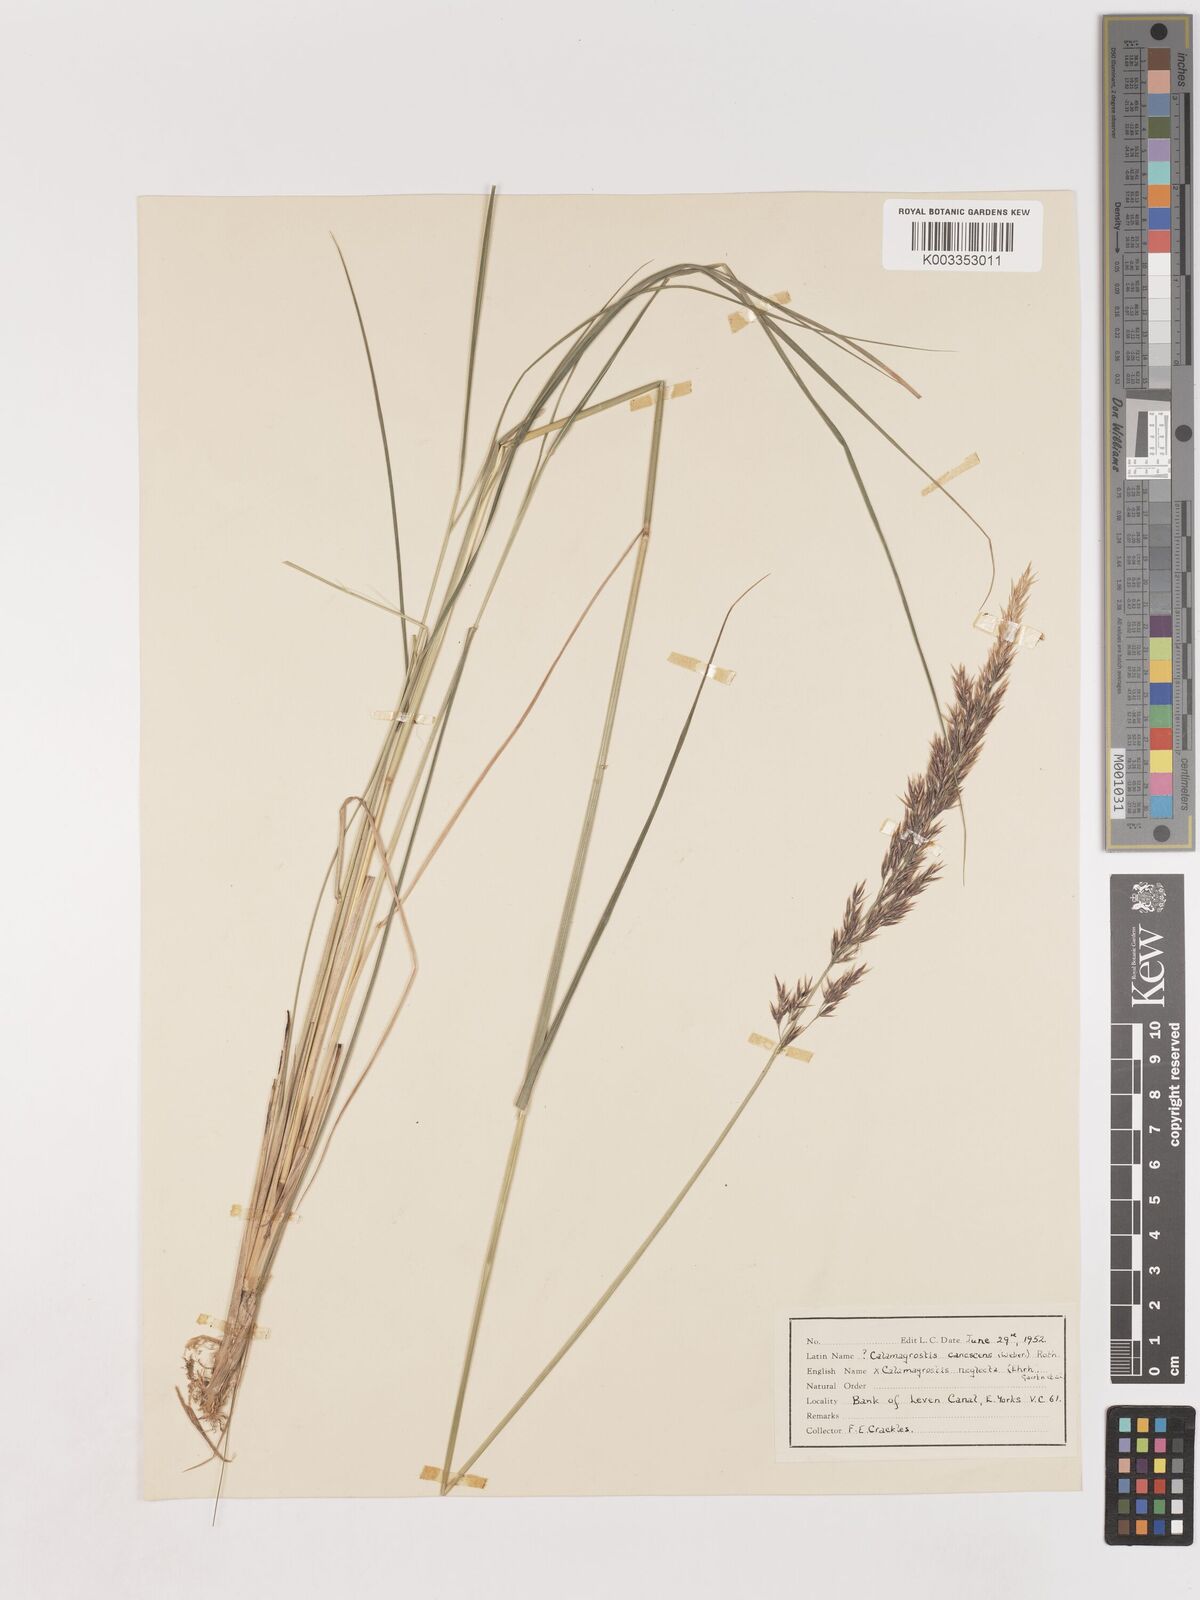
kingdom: Plantae
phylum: Tracheophyta
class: Liliopsida
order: Poales
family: Poaceae
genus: Calamagrostis
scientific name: Calamagrostis canescens
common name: Purple small-reed
